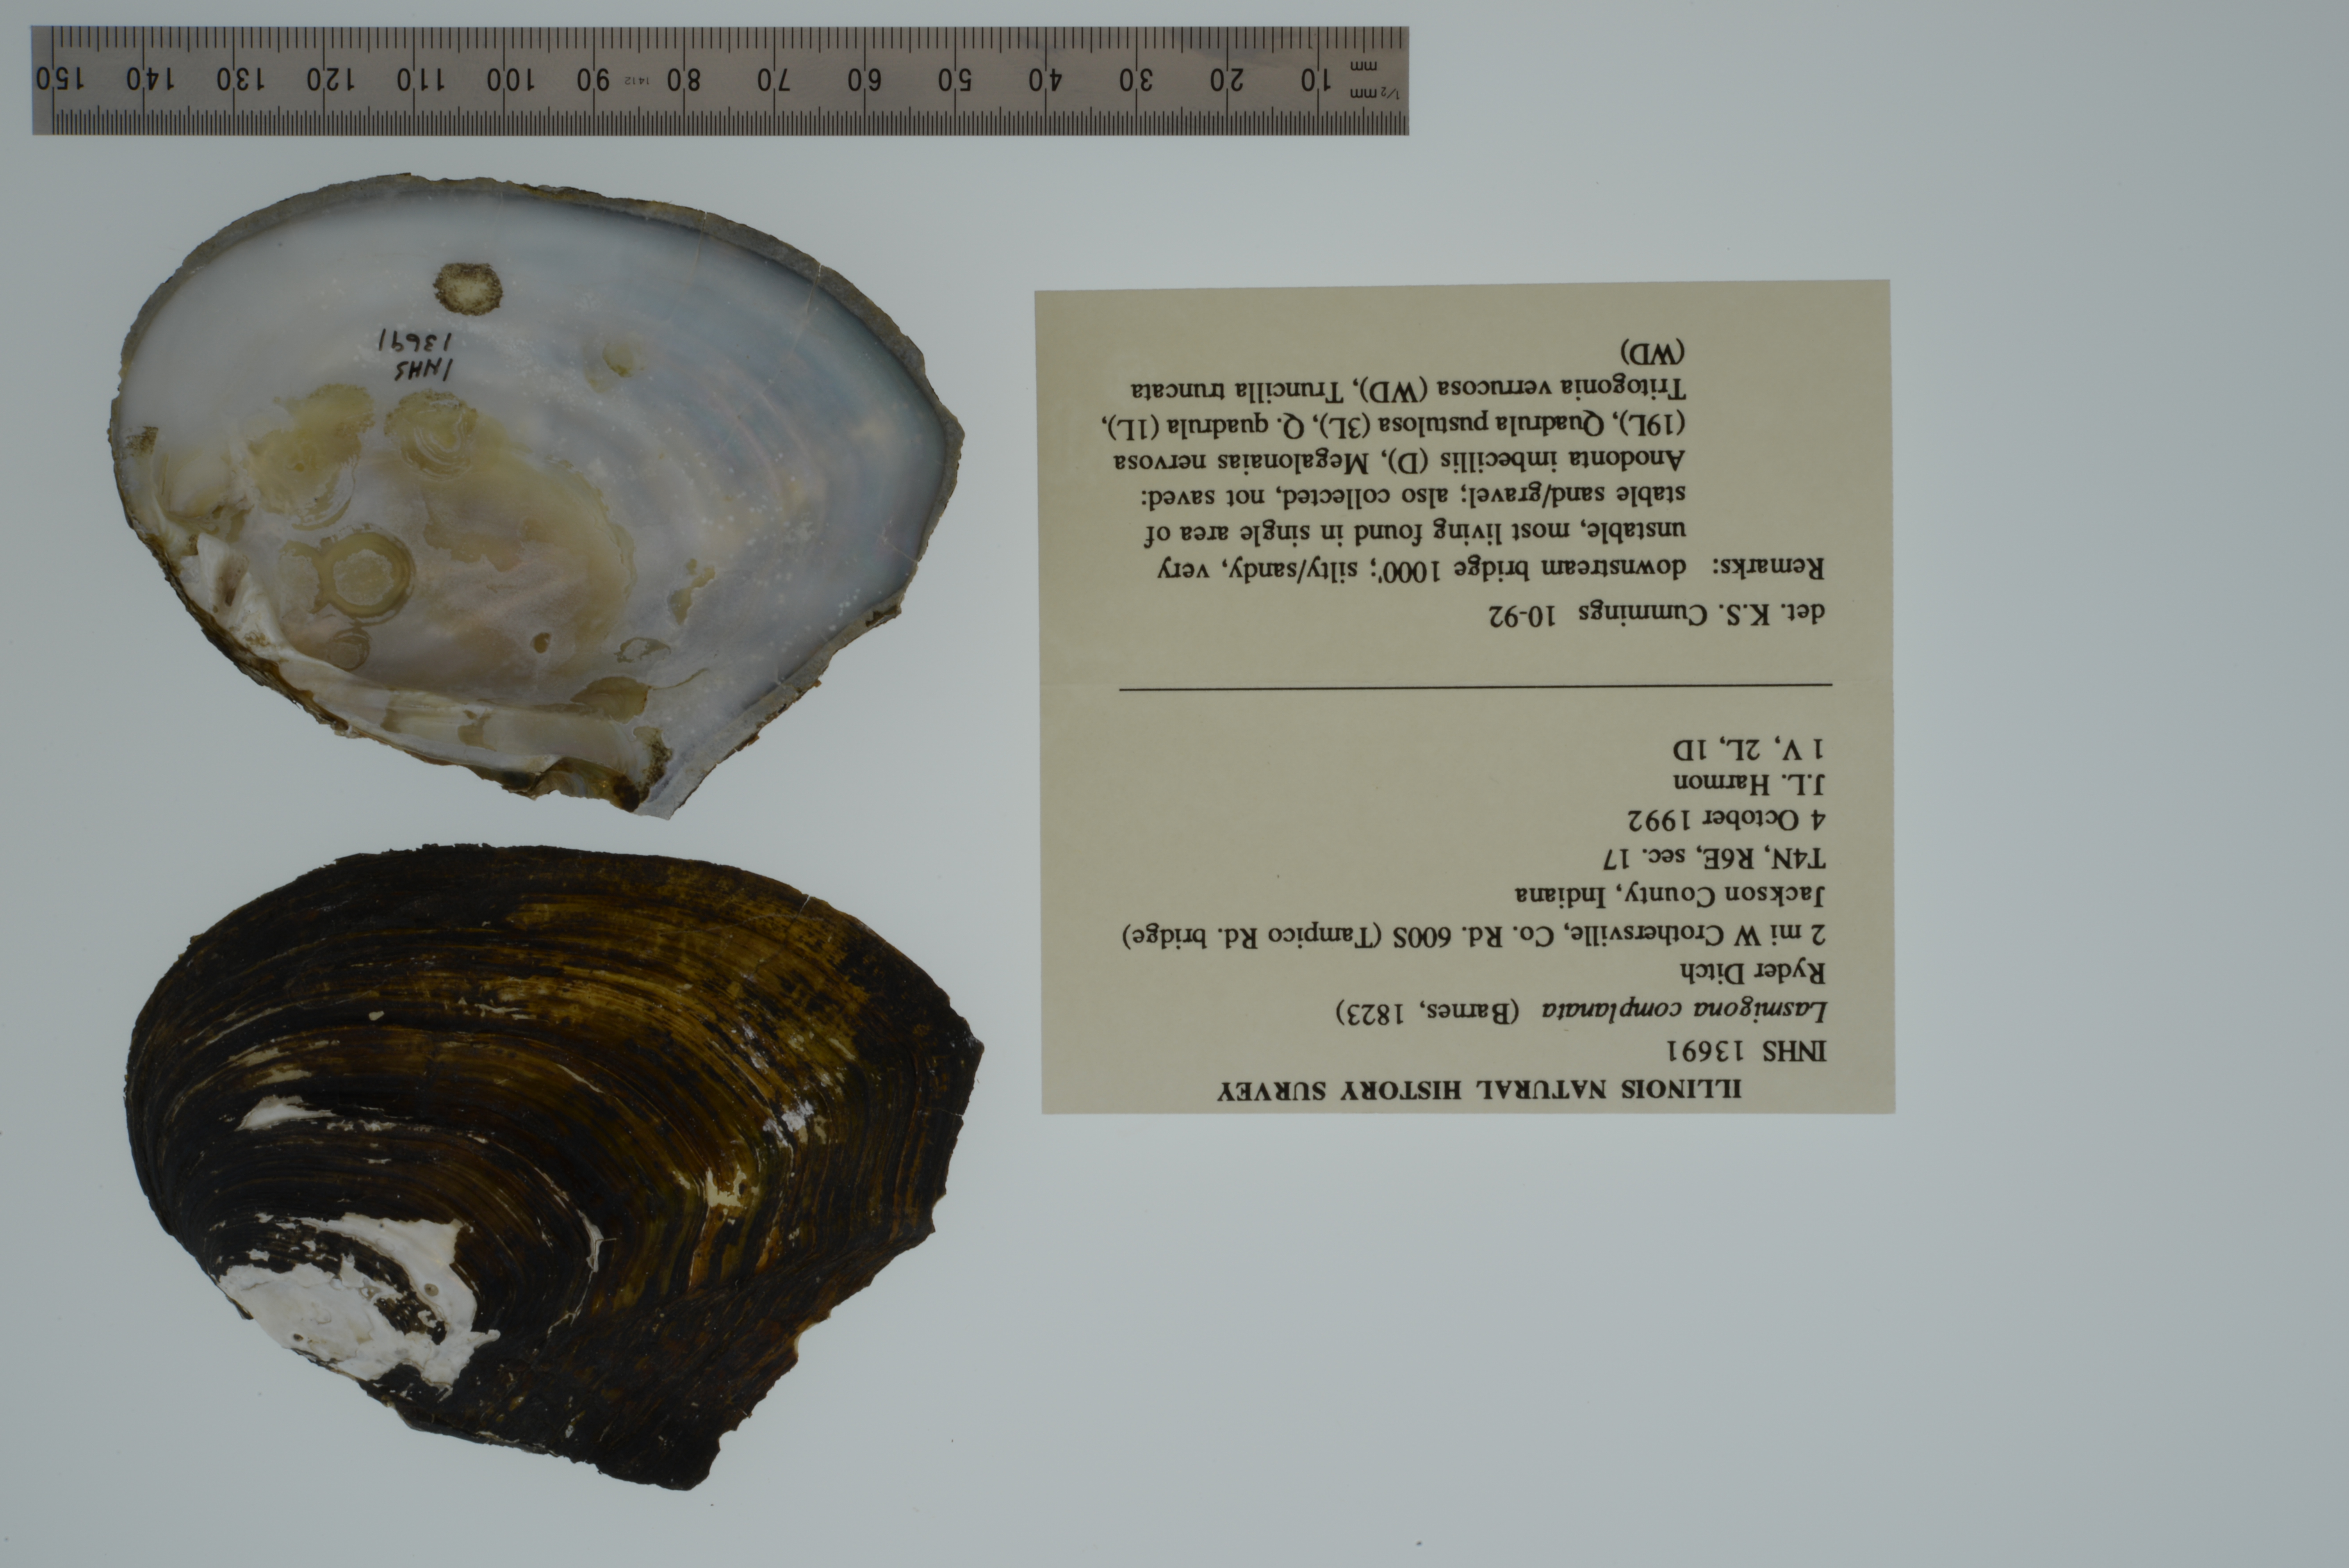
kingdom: Animalia
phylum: Mollusca
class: Bivalvia
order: Unionida
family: Unionidae
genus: Lasmigona
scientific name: Lasmigona complanata
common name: White heelsplitter
